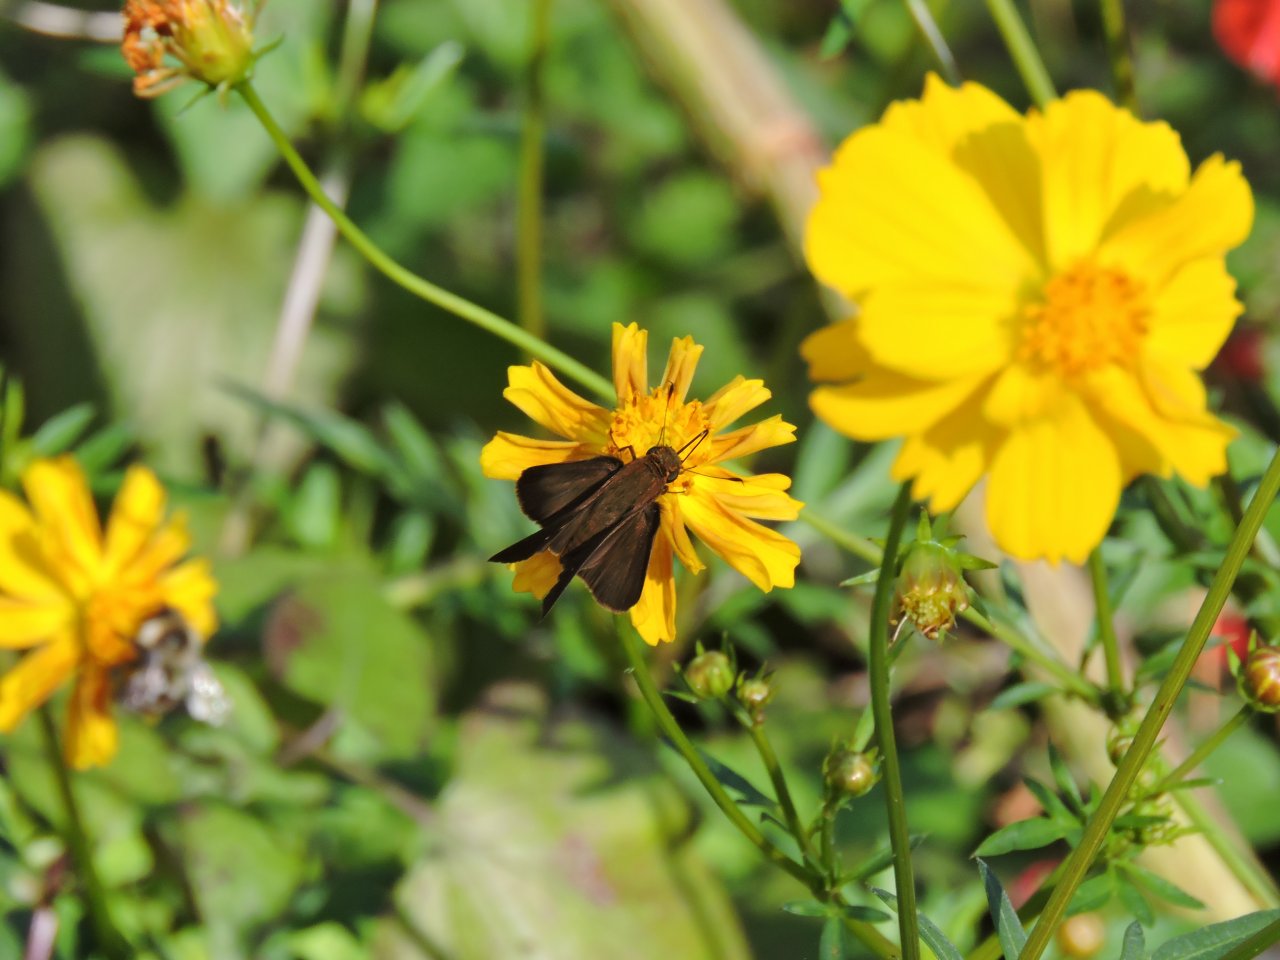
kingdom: Animalia
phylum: Arthropoda
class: Insecta
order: Lepidoptera
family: Hesperiidae
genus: Panoquina
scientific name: Panoquina ocola
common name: Ocola Skipper
